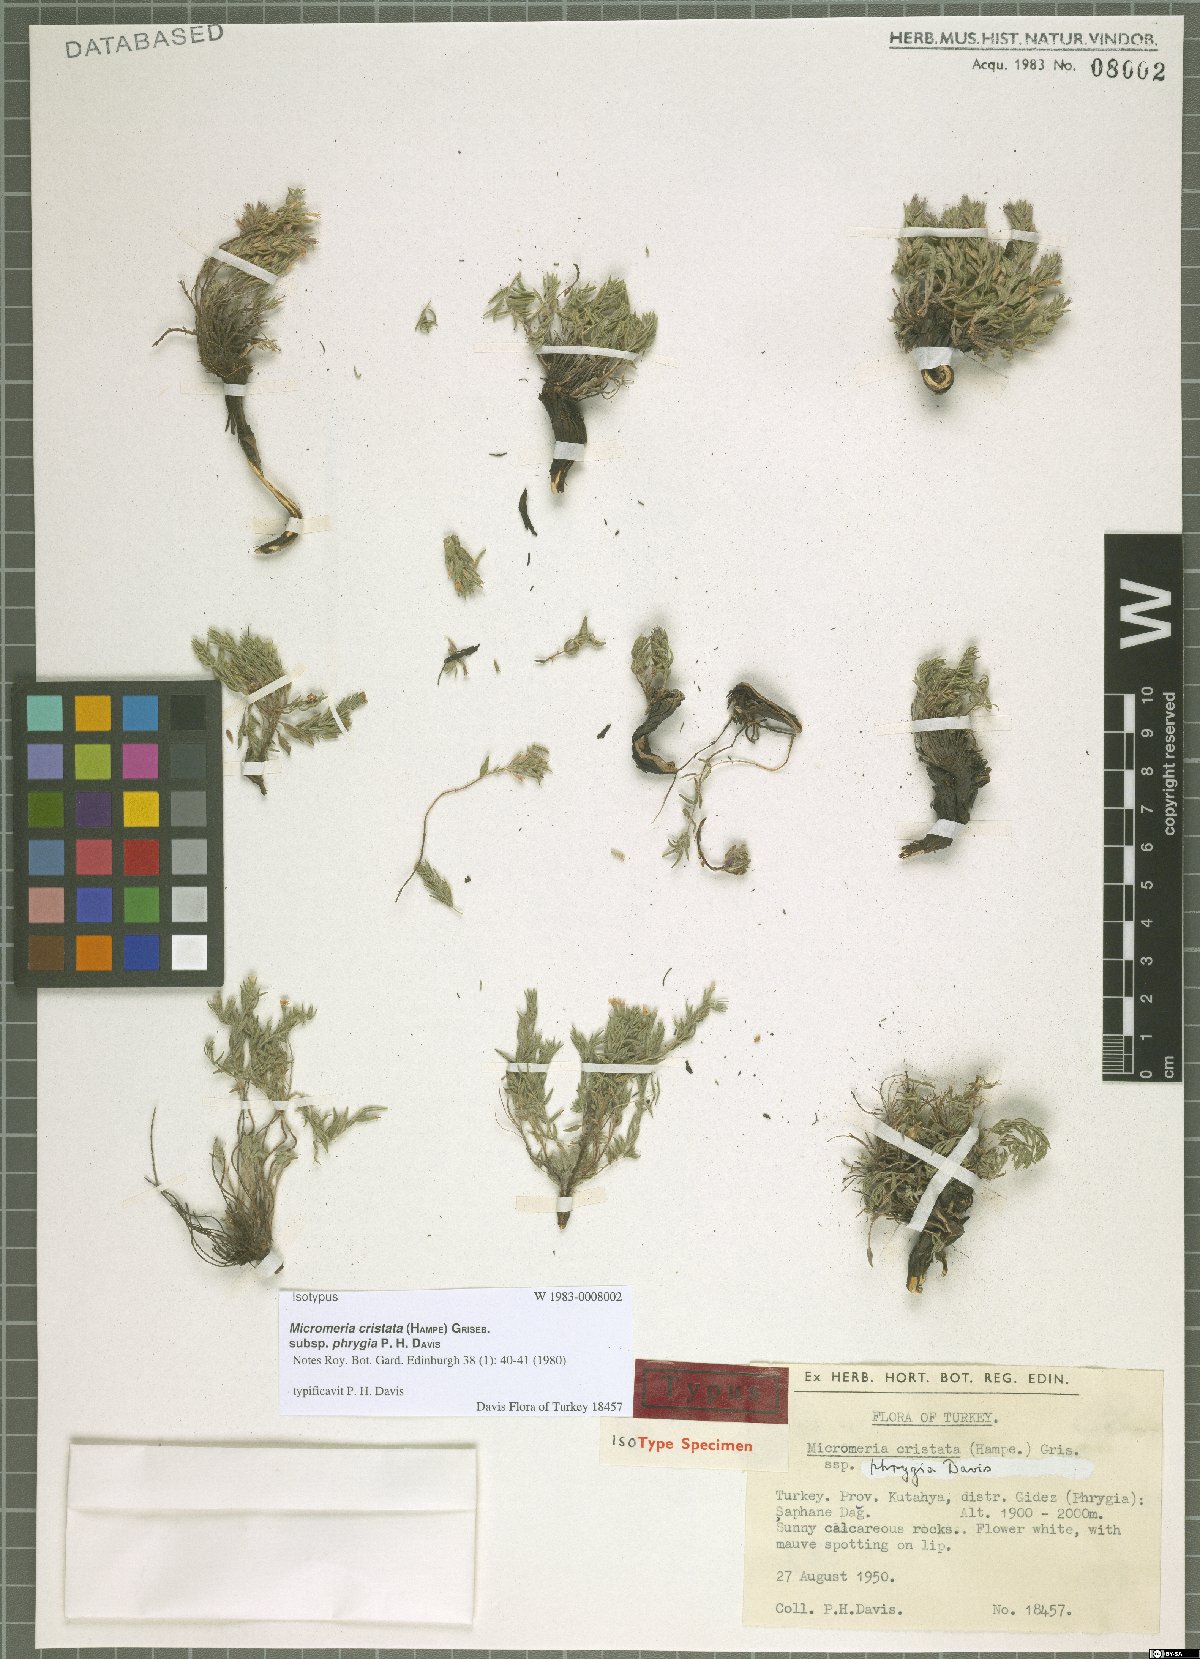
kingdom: Plantae
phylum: Tracheophyta
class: Magnoliopsida
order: Lamiales
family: Lamiaceae
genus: Micromeria
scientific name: Micromeria cristata
